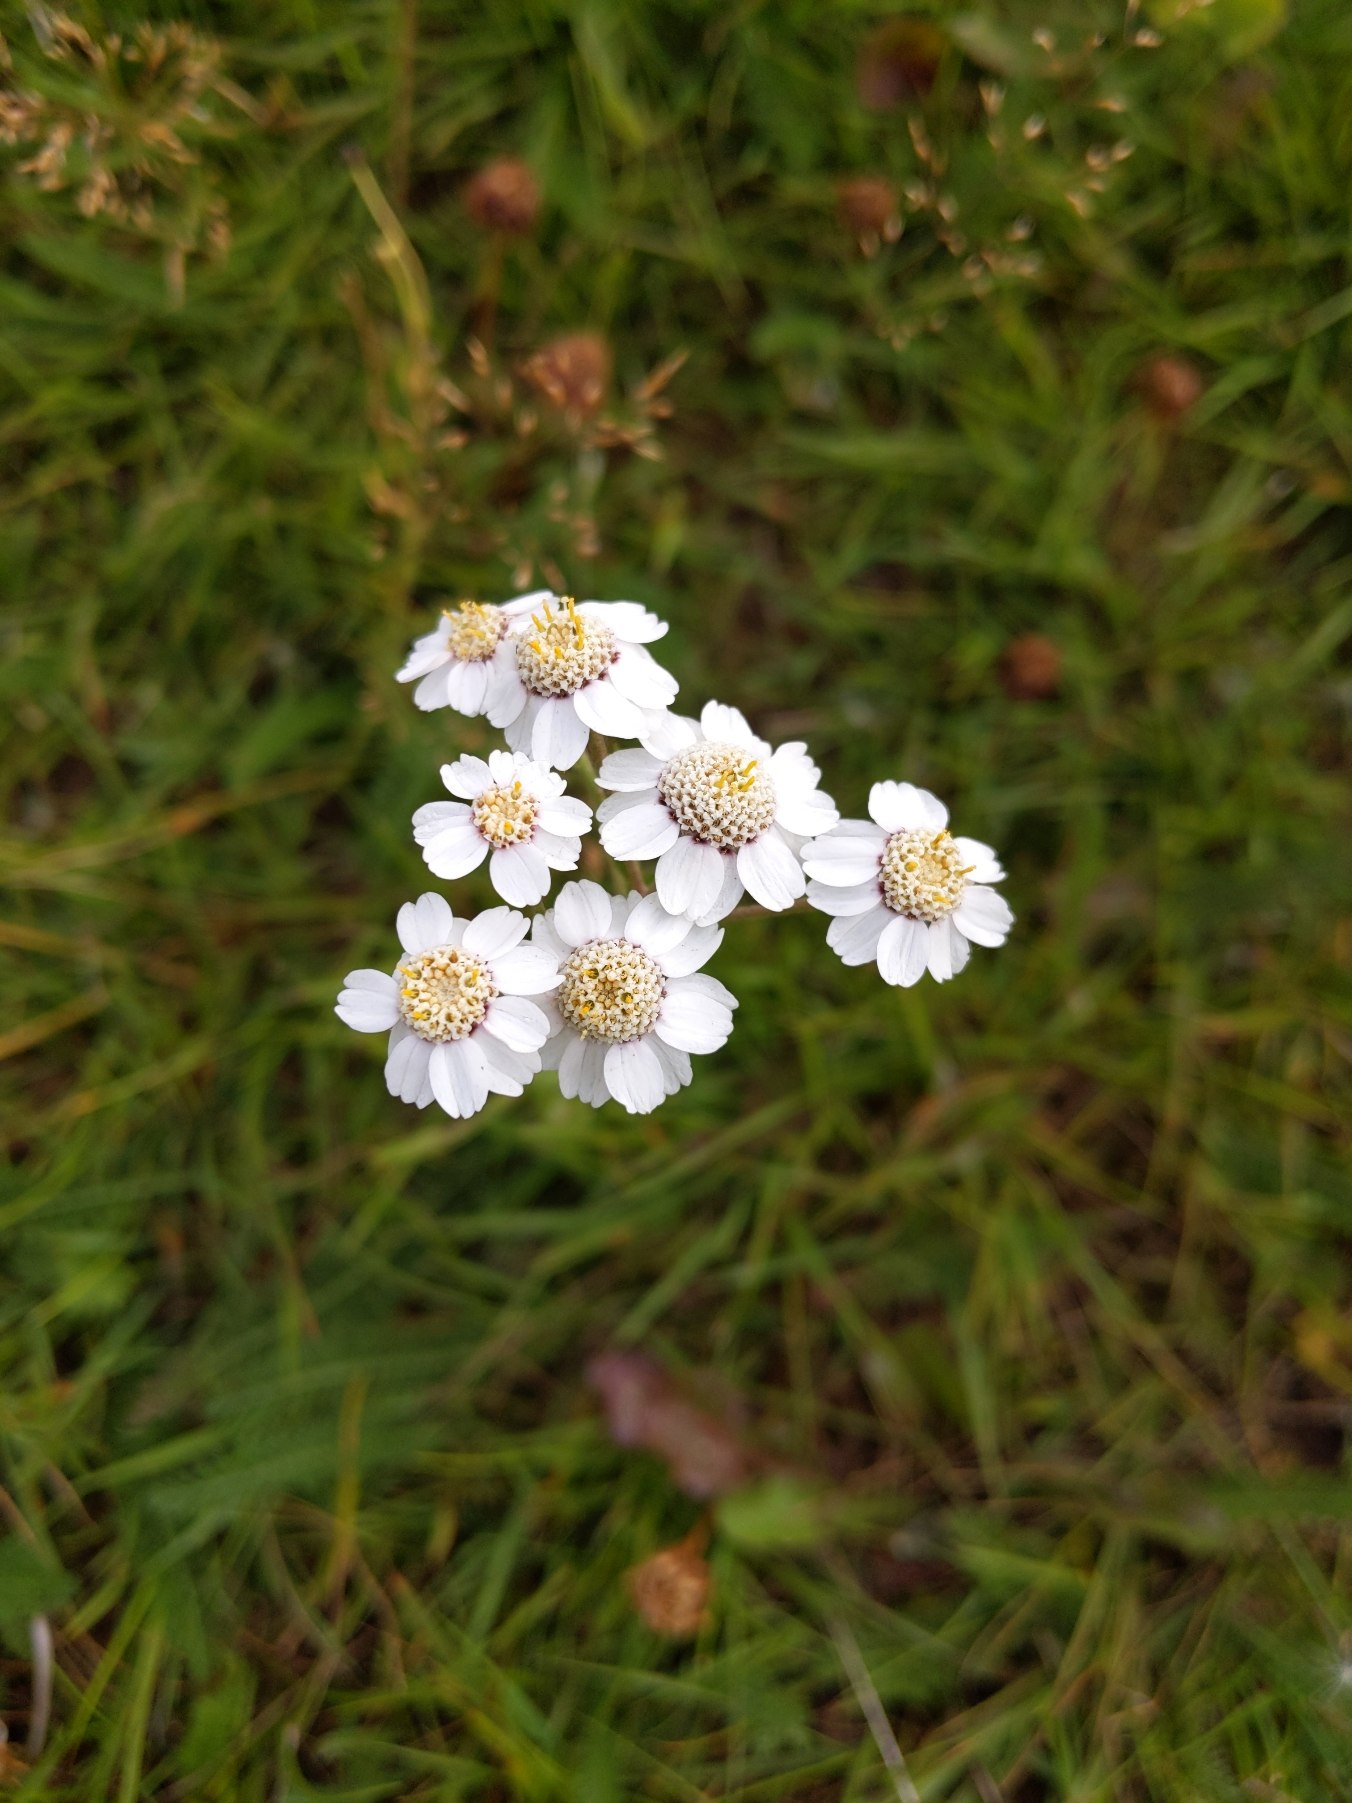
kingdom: Plantae
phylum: Tracheophyta
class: Magnoliopsida
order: Asterales
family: Asteraceae
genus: Achillea
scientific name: Achillea ptarmica
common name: Nyse-røllike
